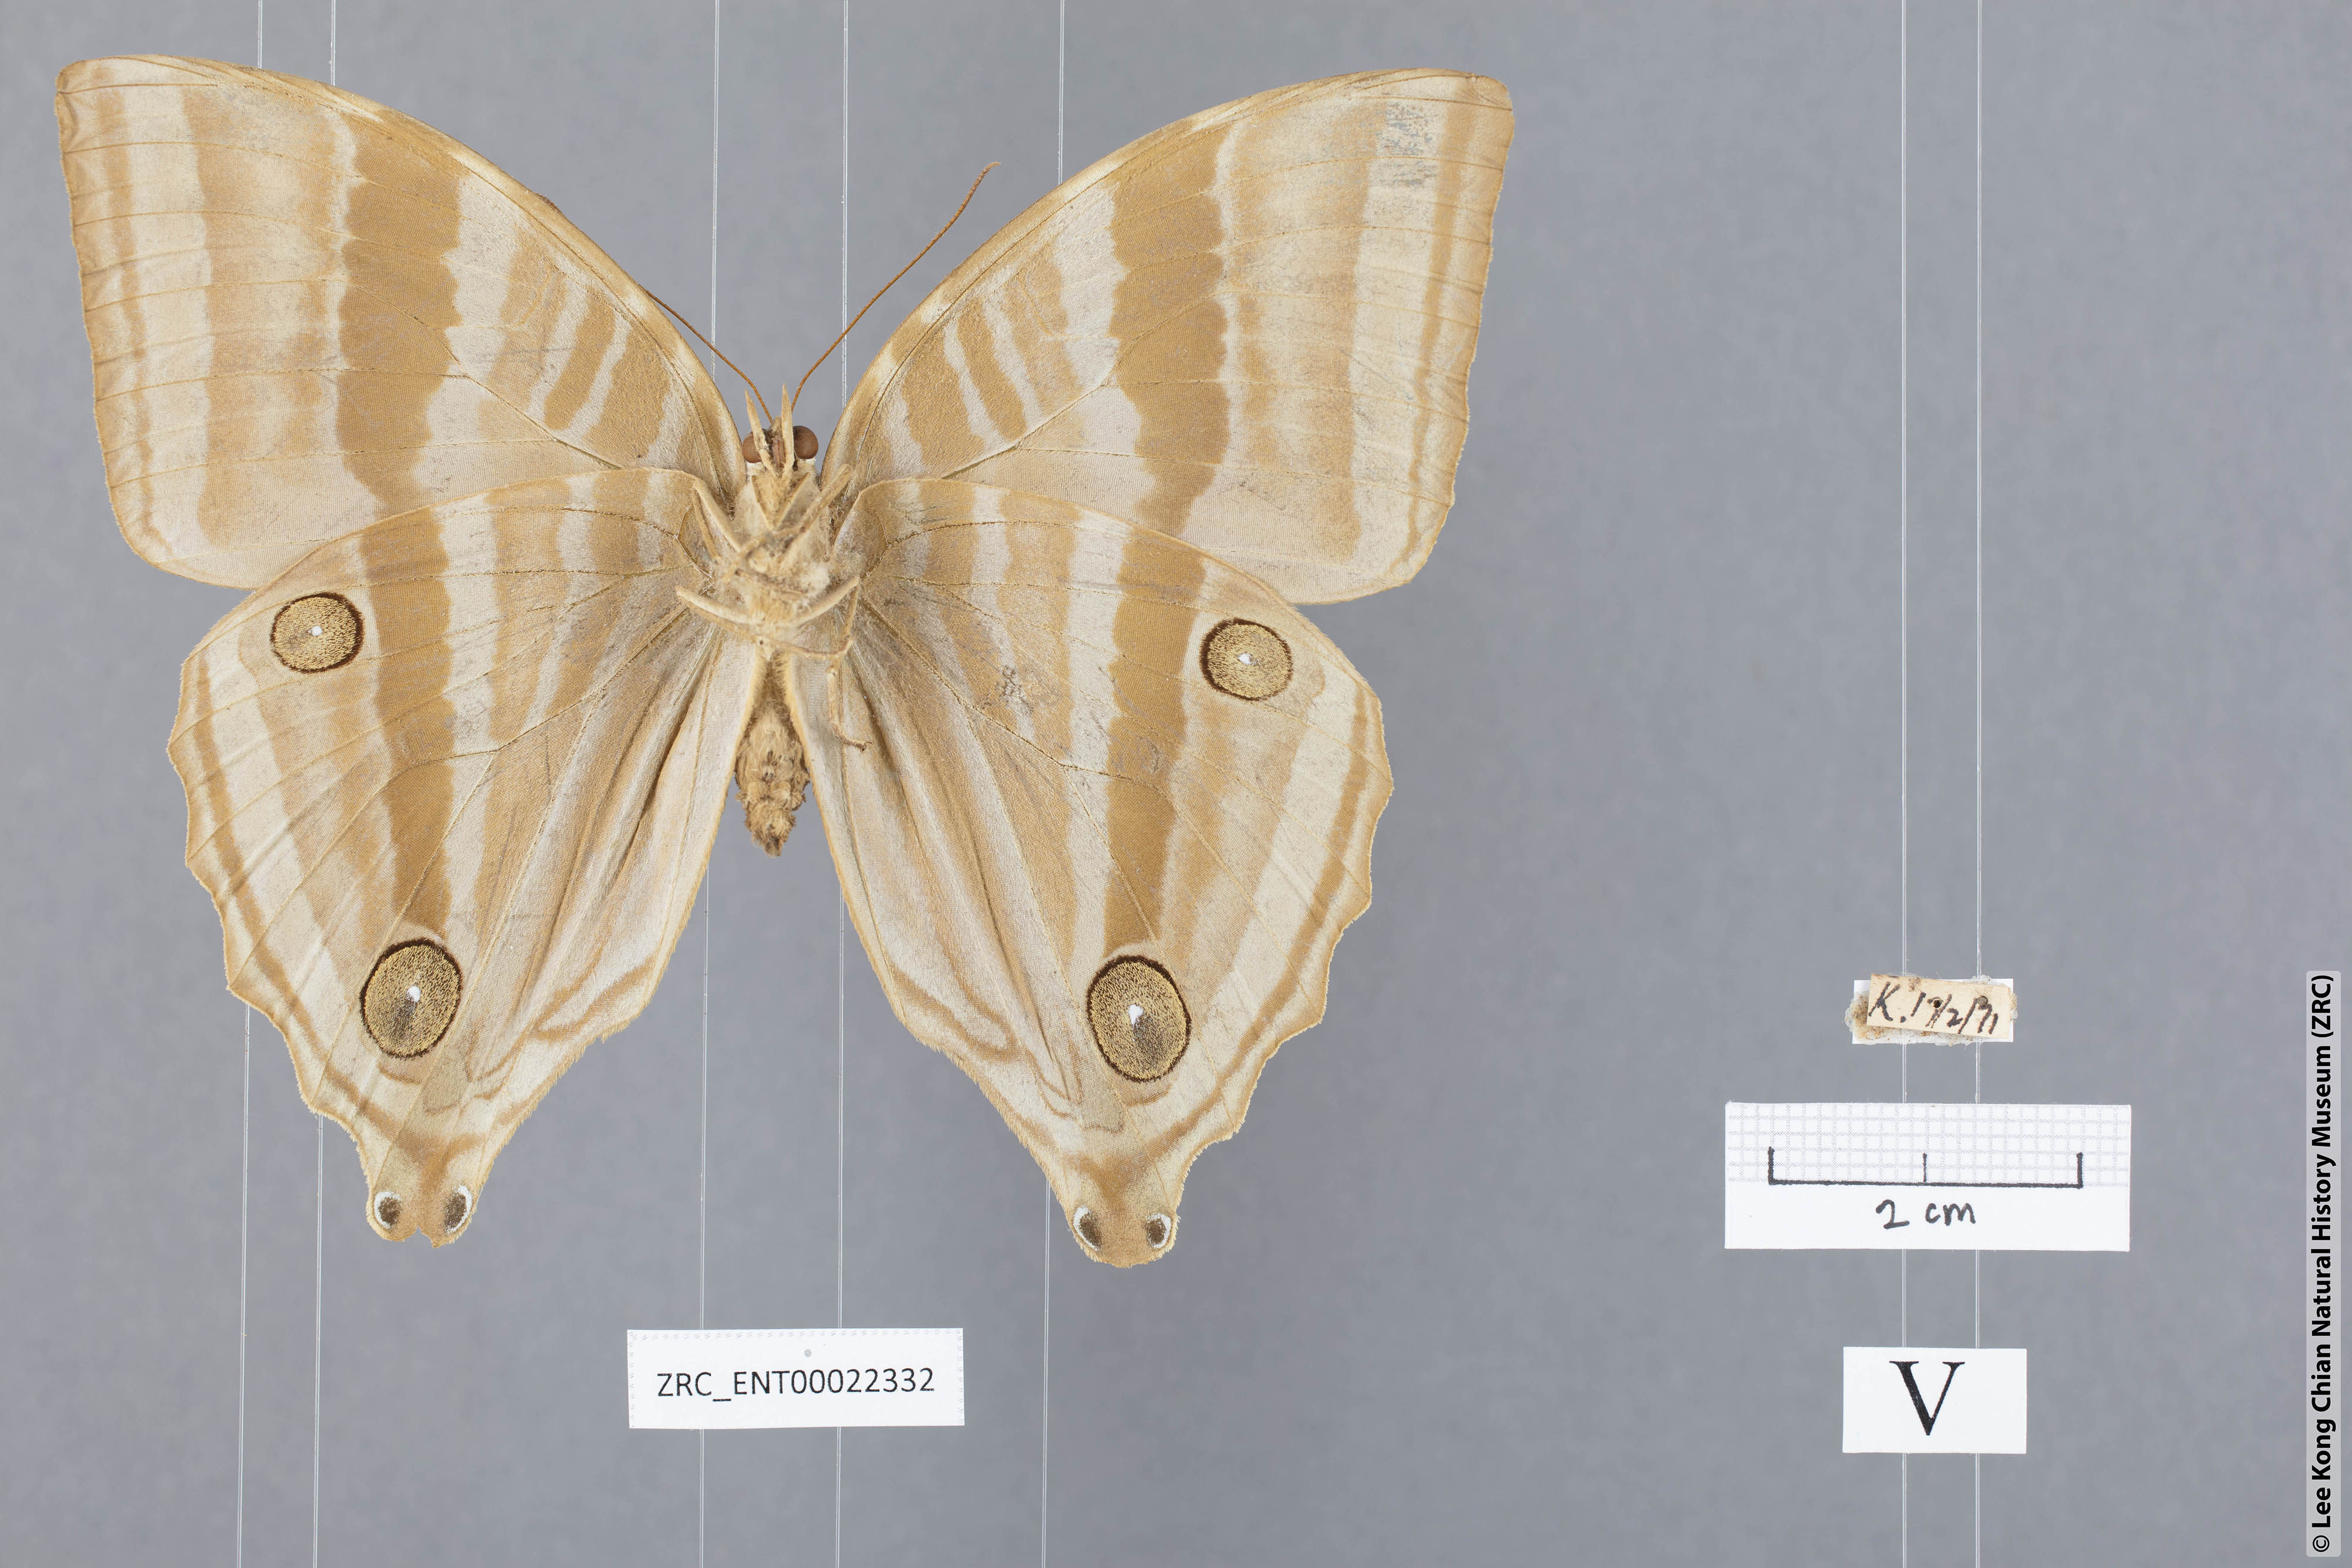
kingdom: Animalia
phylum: Arthropoda
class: Insecta
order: Lepidoptera
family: Nymphalidae
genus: Amathusia
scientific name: Amathusia phidippus
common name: Palm king
